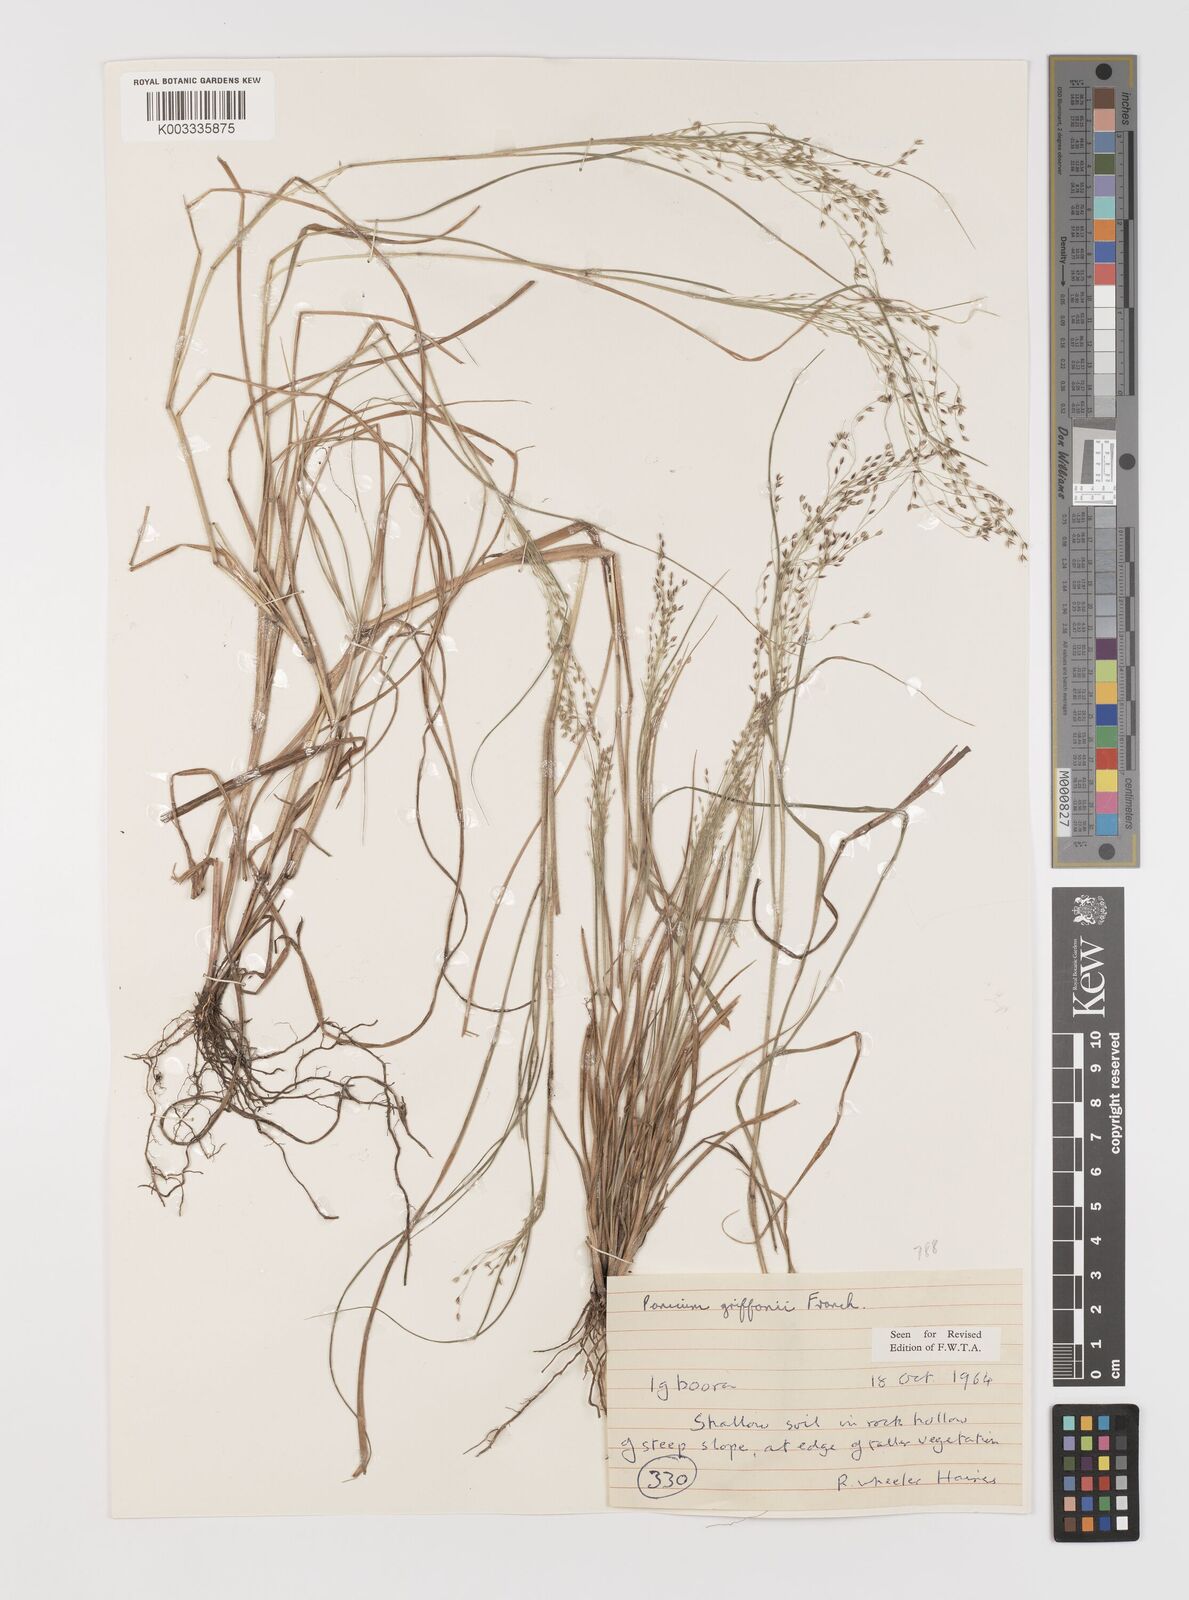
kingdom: Plantae
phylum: Tracheophyta
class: Liliopsida
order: Poales
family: Poaceae
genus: Panicum
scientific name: Panicum paucinode
